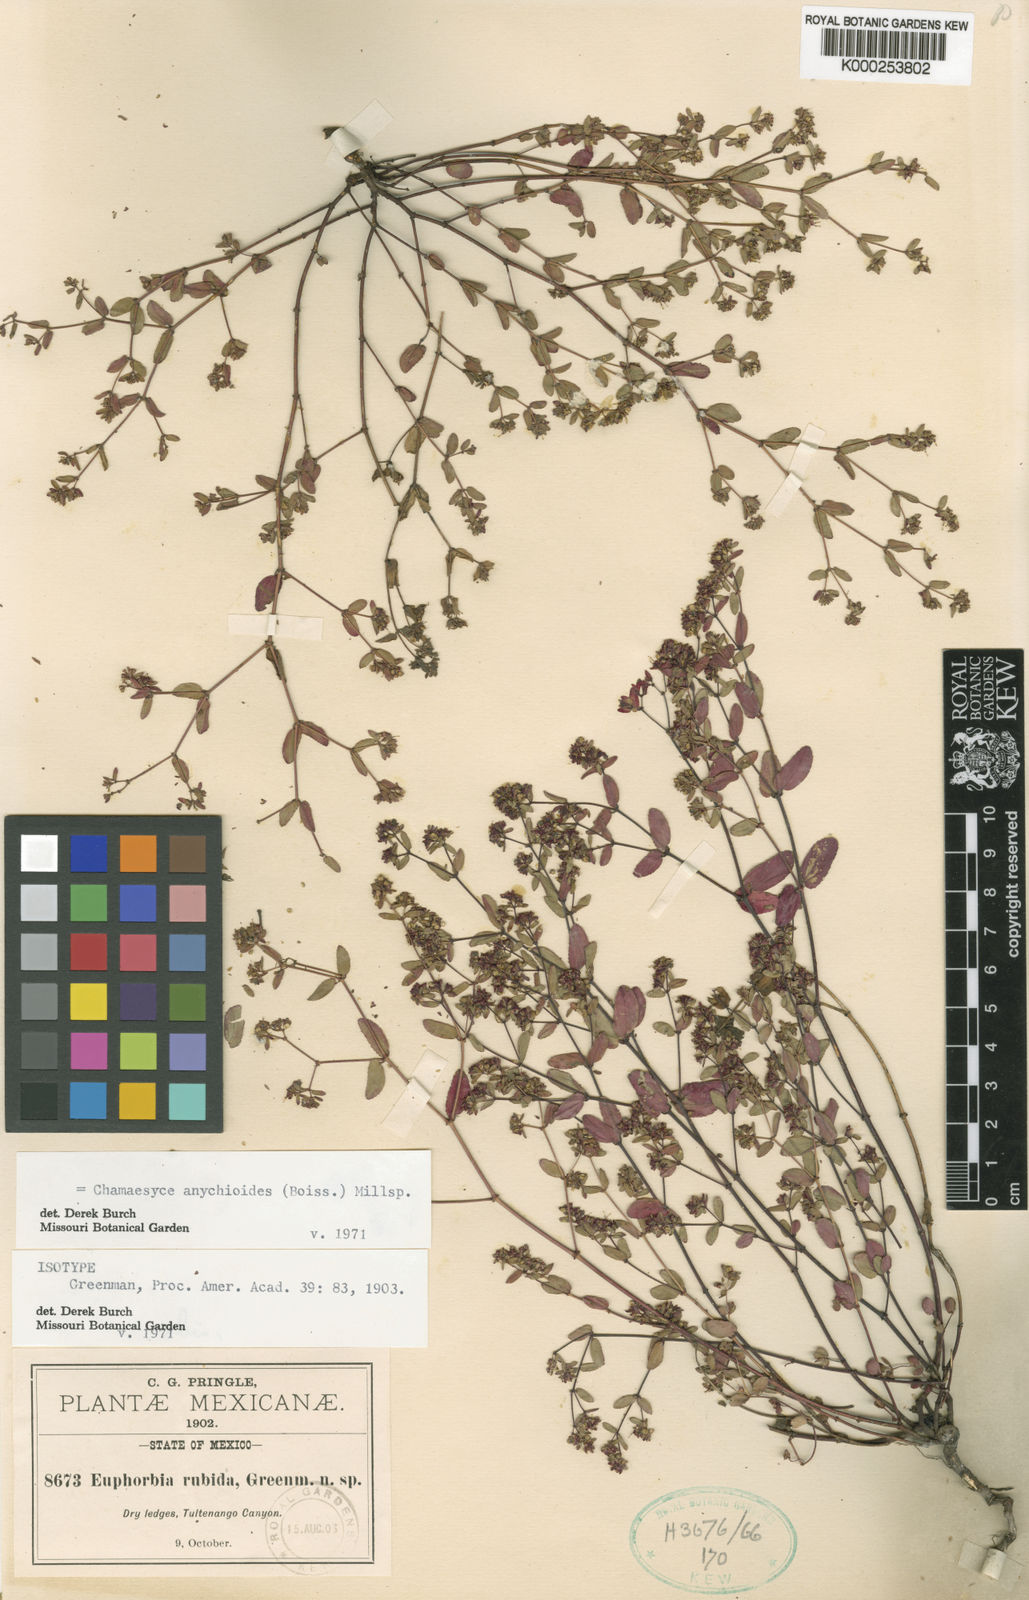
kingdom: Plantae
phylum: Tracheophyta
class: Magnoliopsida
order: Malpighiales
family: Euphorbiaceae
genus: Euphorbia
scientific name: Euphorbia anychioides
